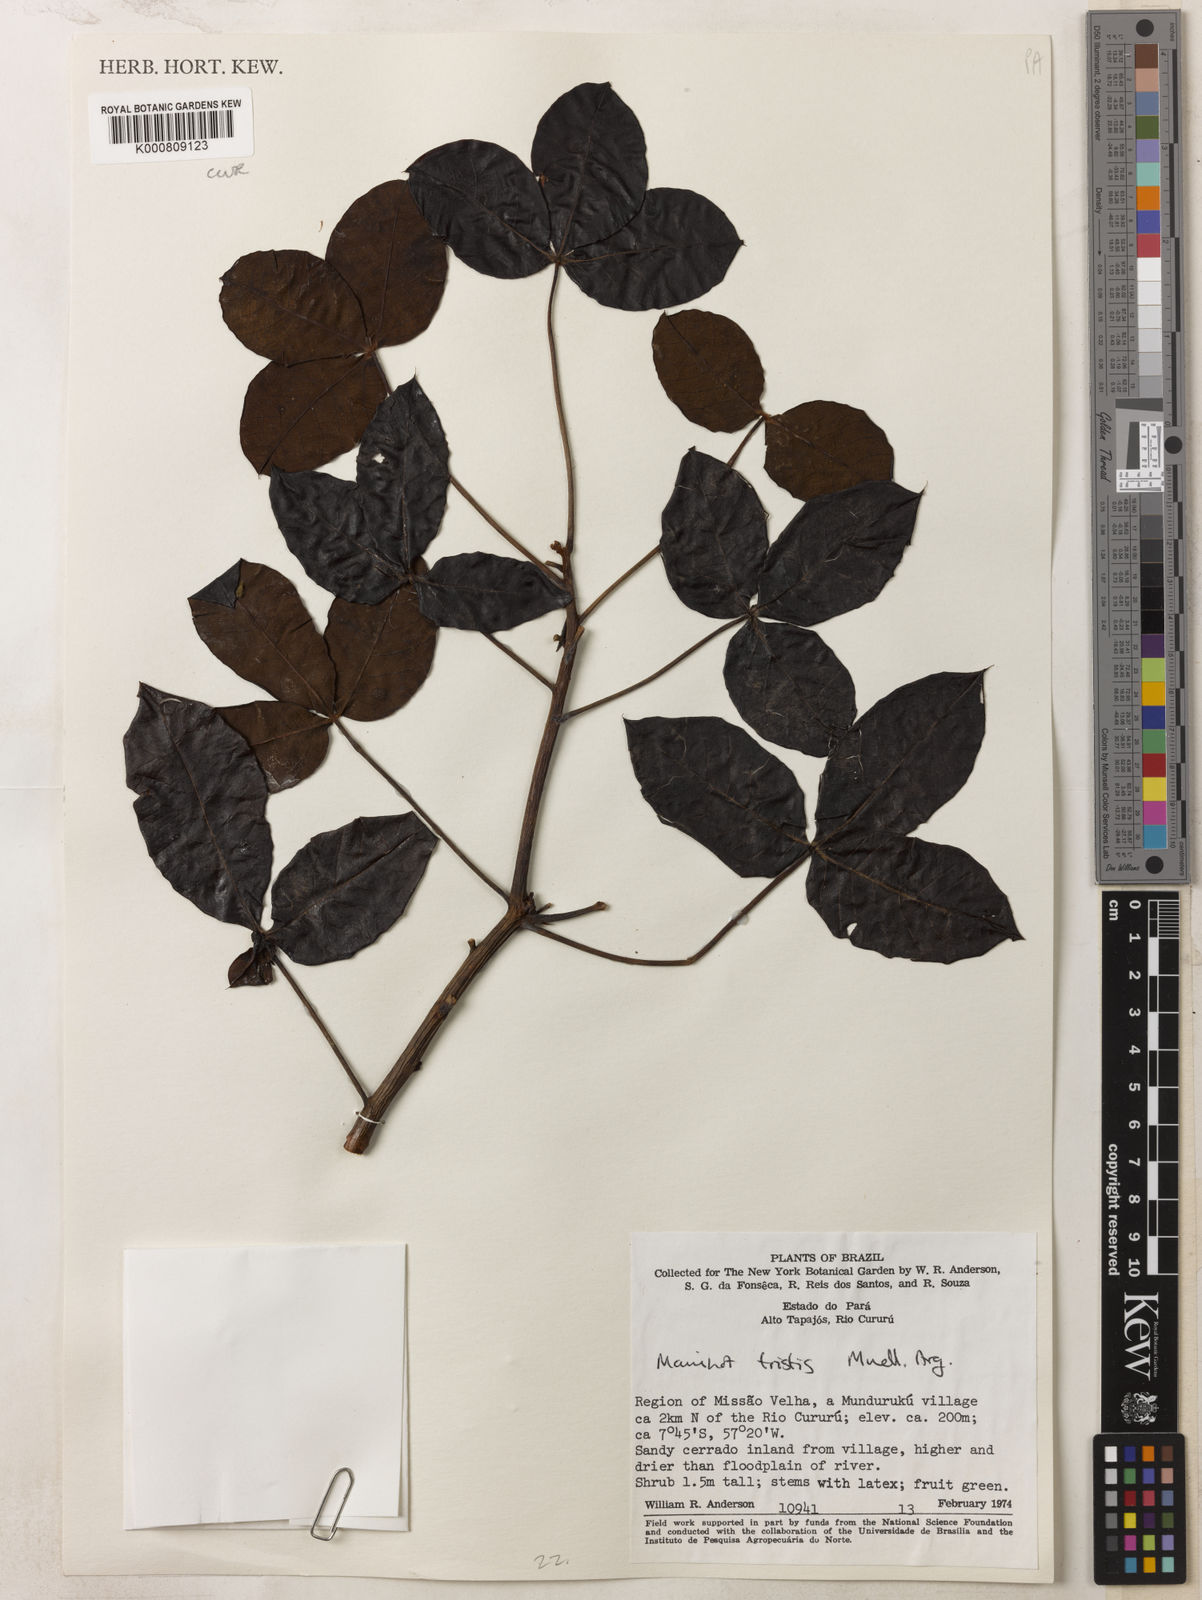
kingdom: Plantae
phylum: Tracheophyta
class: Magnoliopsida
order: Malpighiales
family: Euphorbiaceae
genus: Manihot
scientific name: Manihot tristis
